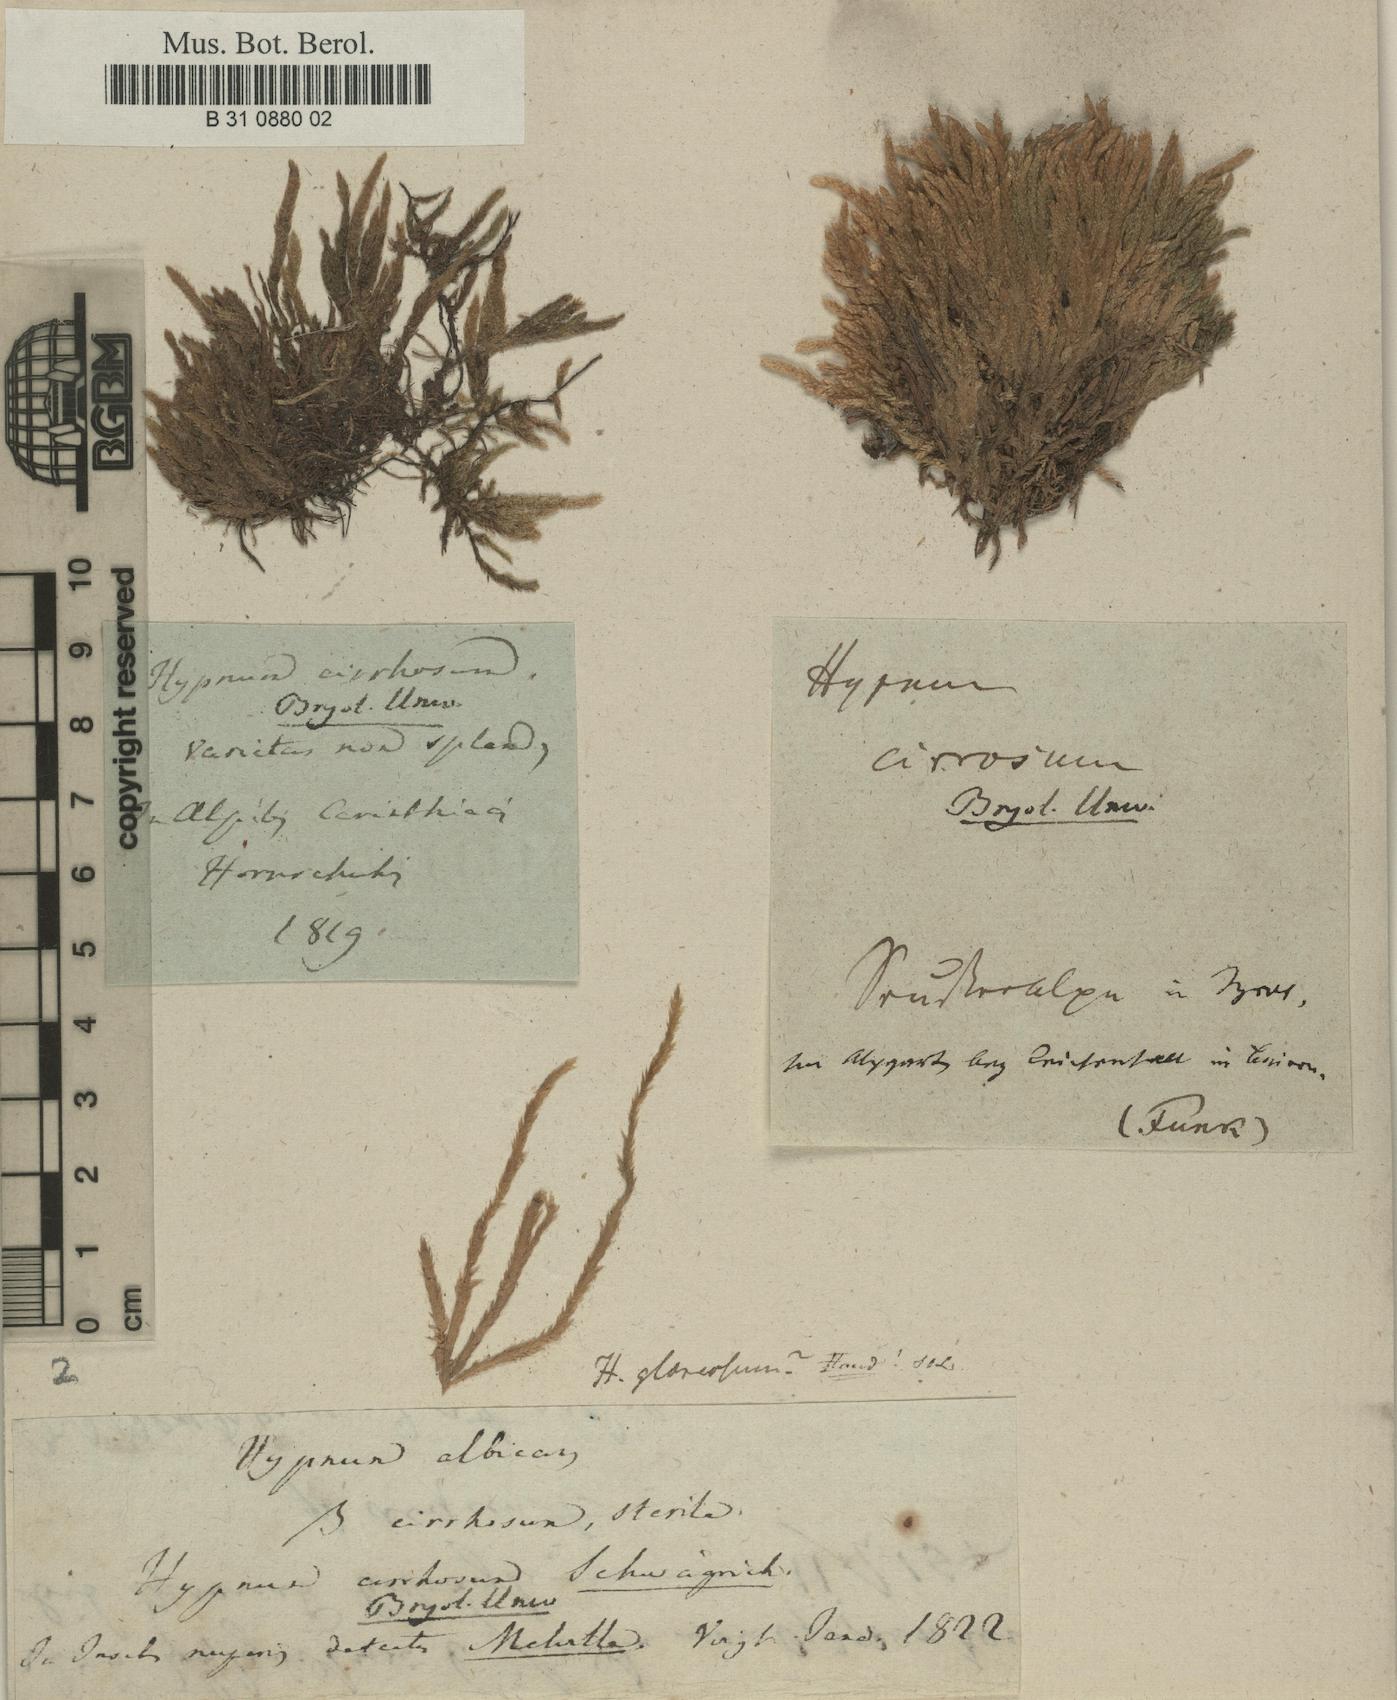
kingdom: Plantae
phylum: Bryophyta
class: Bryopsida
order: Hypnales
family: Hypnaceae
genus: Hypnum
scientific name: Hypnum
